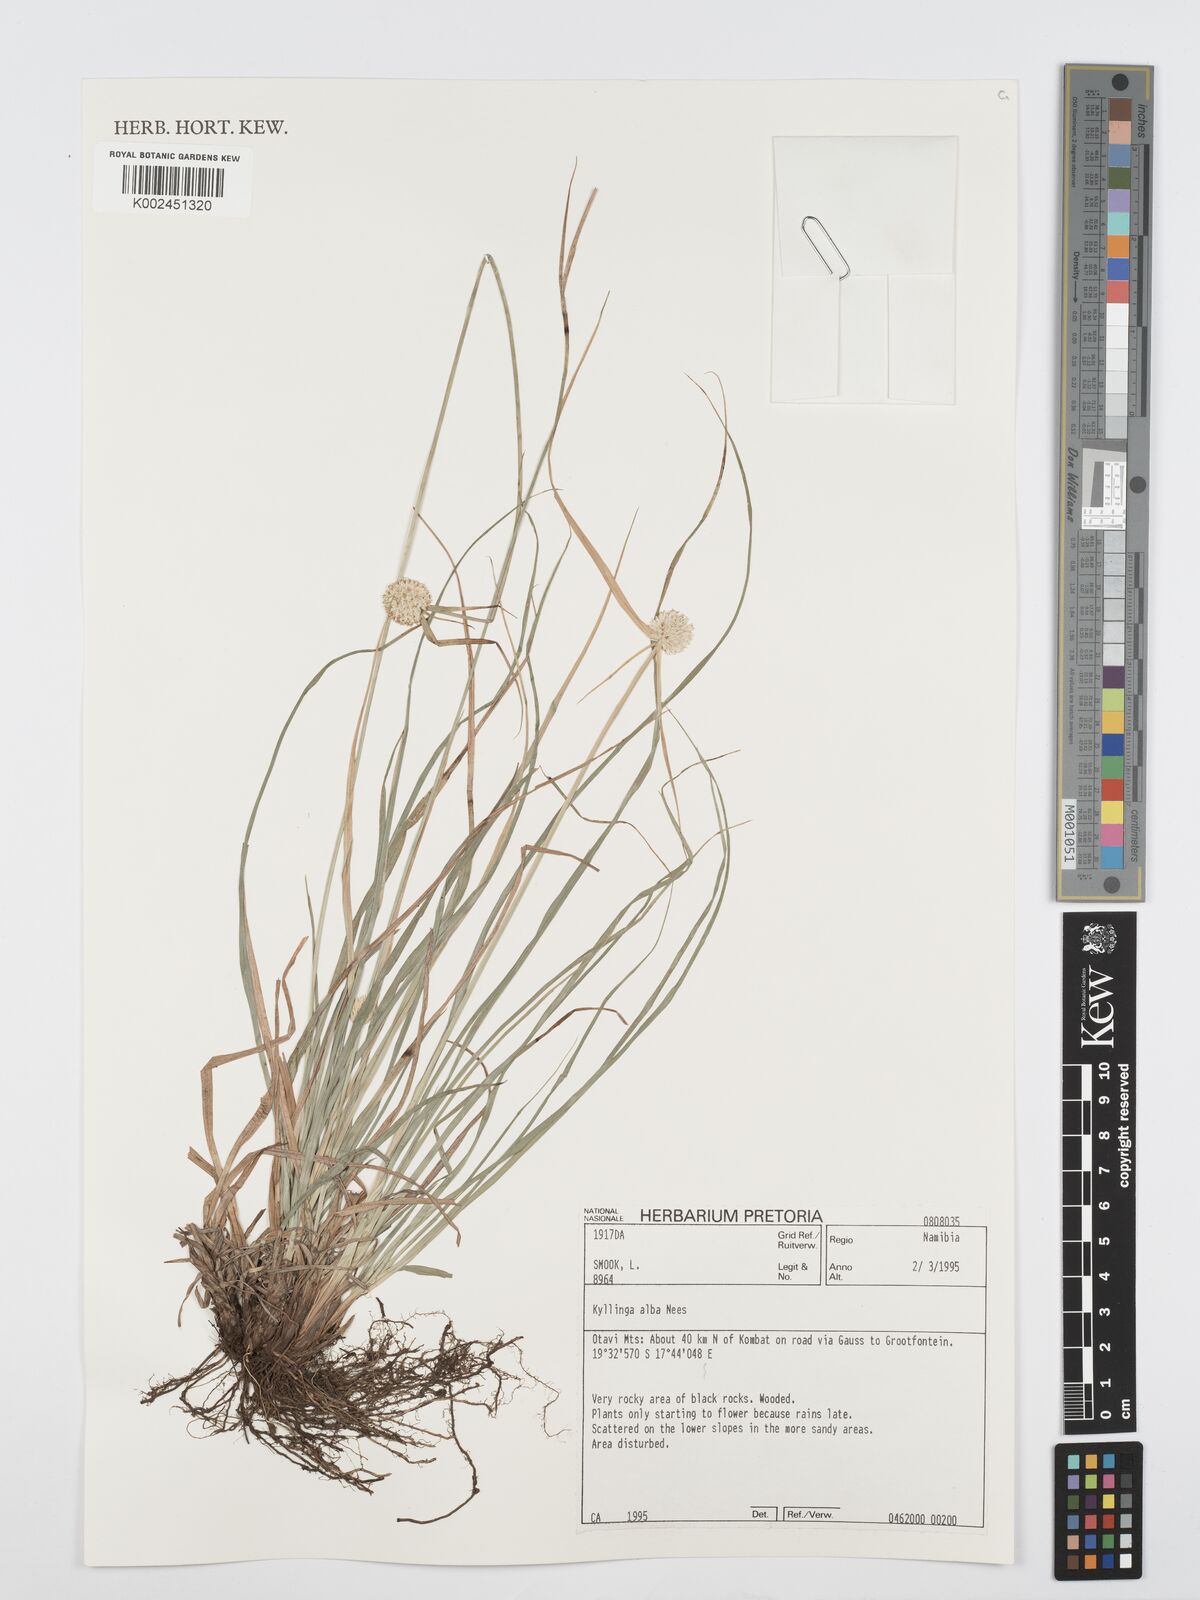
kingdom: Plantae
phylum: Tracheophyta
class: Liliopsida
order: Poales
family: Cyperaceae
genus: Cyperus
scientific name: Cyperus
